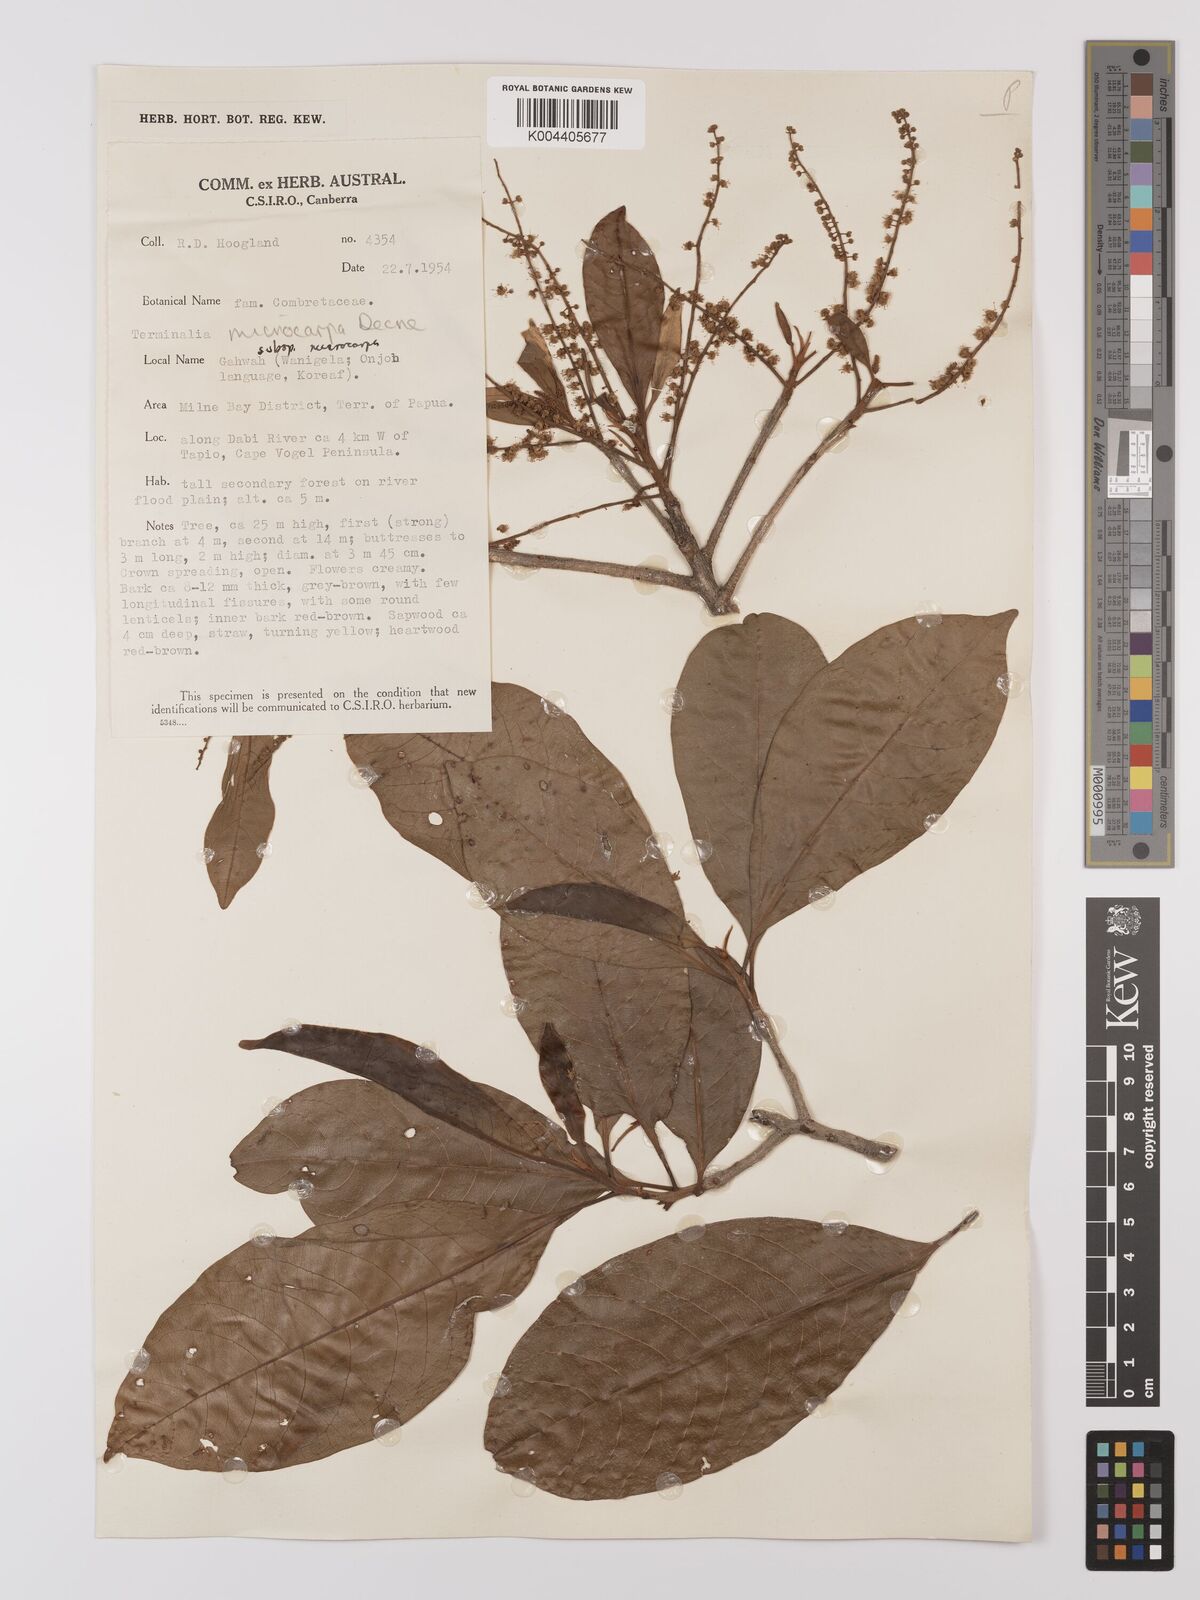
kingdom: Plantae
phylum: Tracheophyta
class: Magnoliopsida
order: Myrtales
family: Combretaceae
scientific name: Combretaceae
